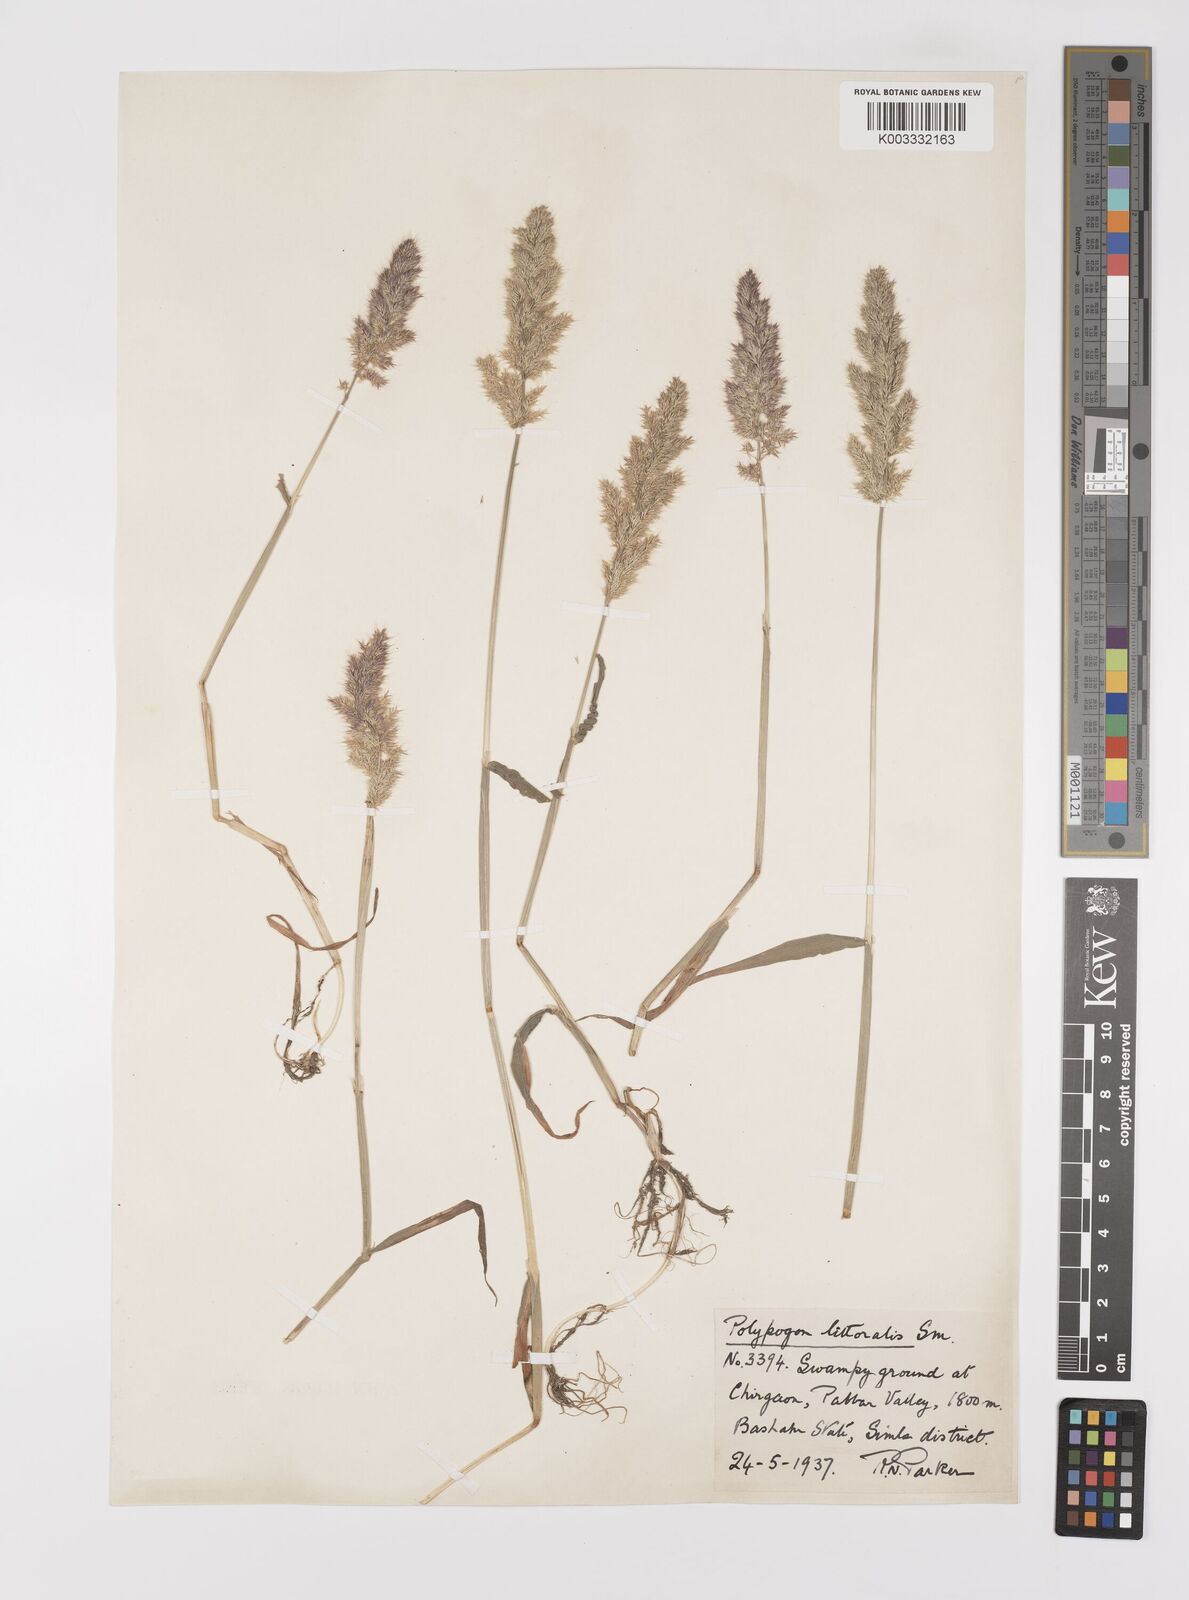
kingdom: Plantae
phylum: Tracheophyta
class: Liliopsida
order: Poales
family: Poaceae
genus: Polypogon
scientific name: Polypogon fugax
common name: Asia minor bluegrass
